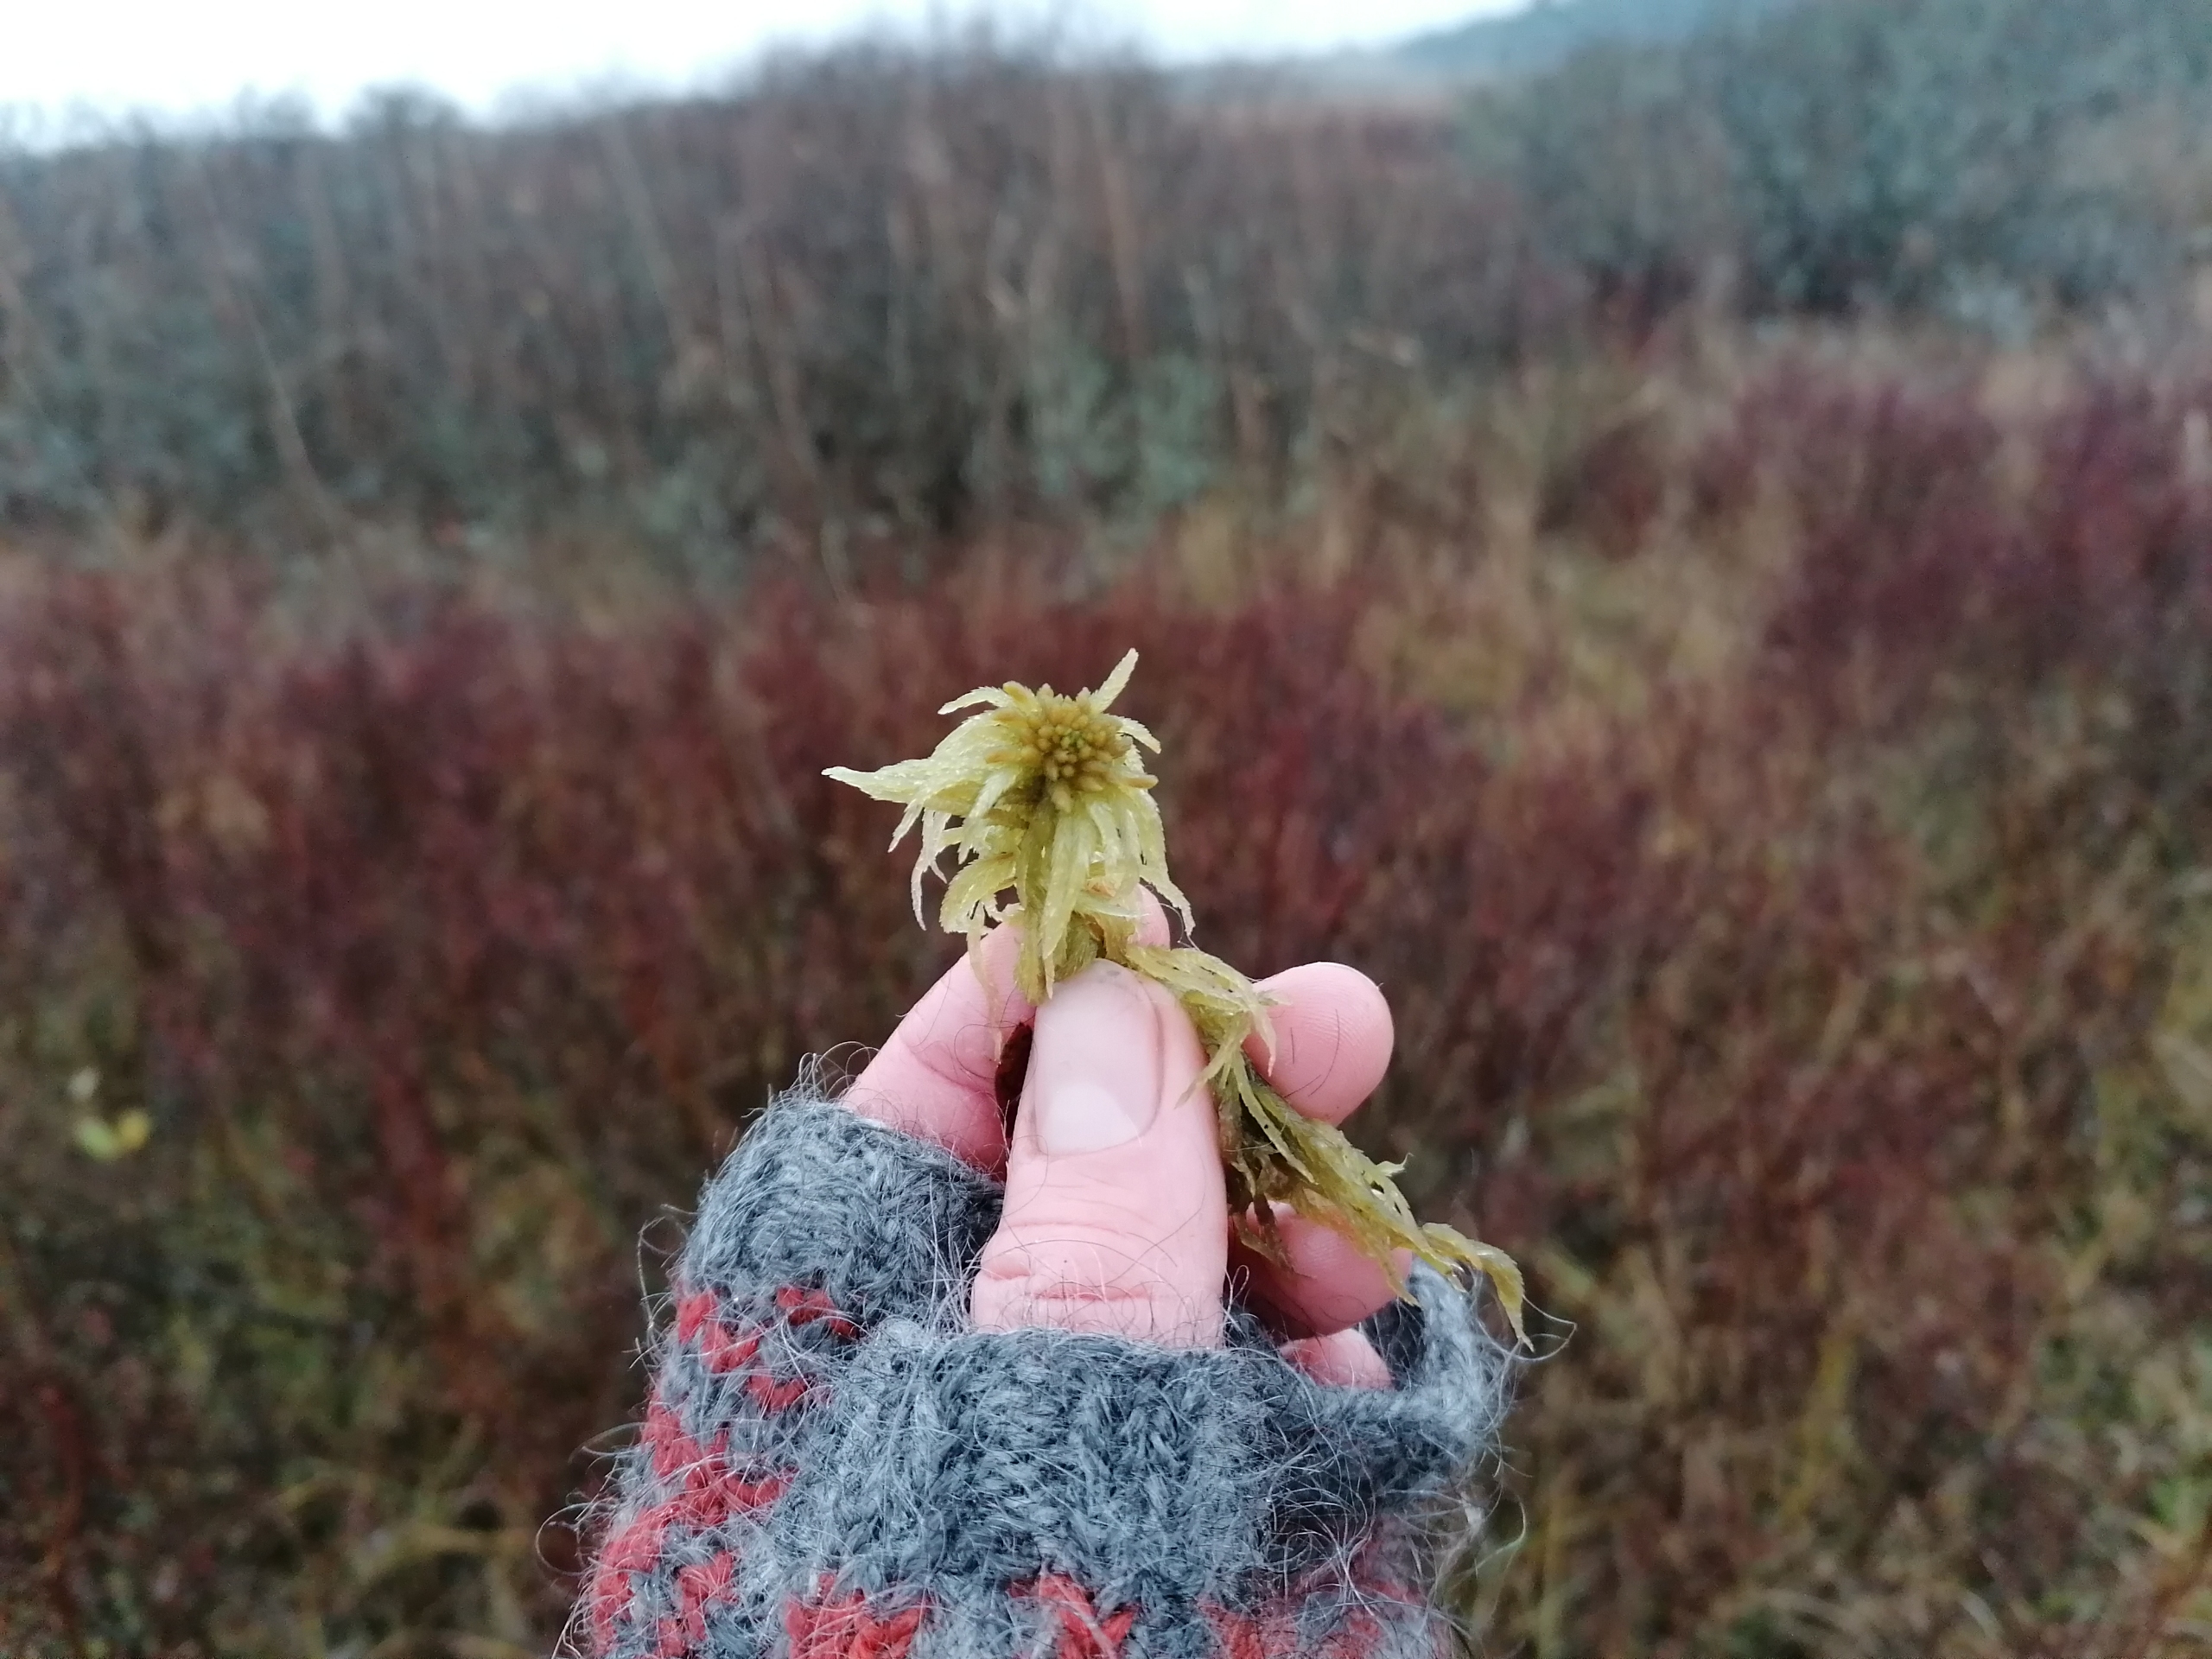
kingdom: Plantae
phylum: Bryophyta
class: Sphagnopsida
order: Sphagnales
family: Sphagnaceae
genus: Sphagnum
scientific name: Sphagnum obtusum
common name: Småporet tørvemos
